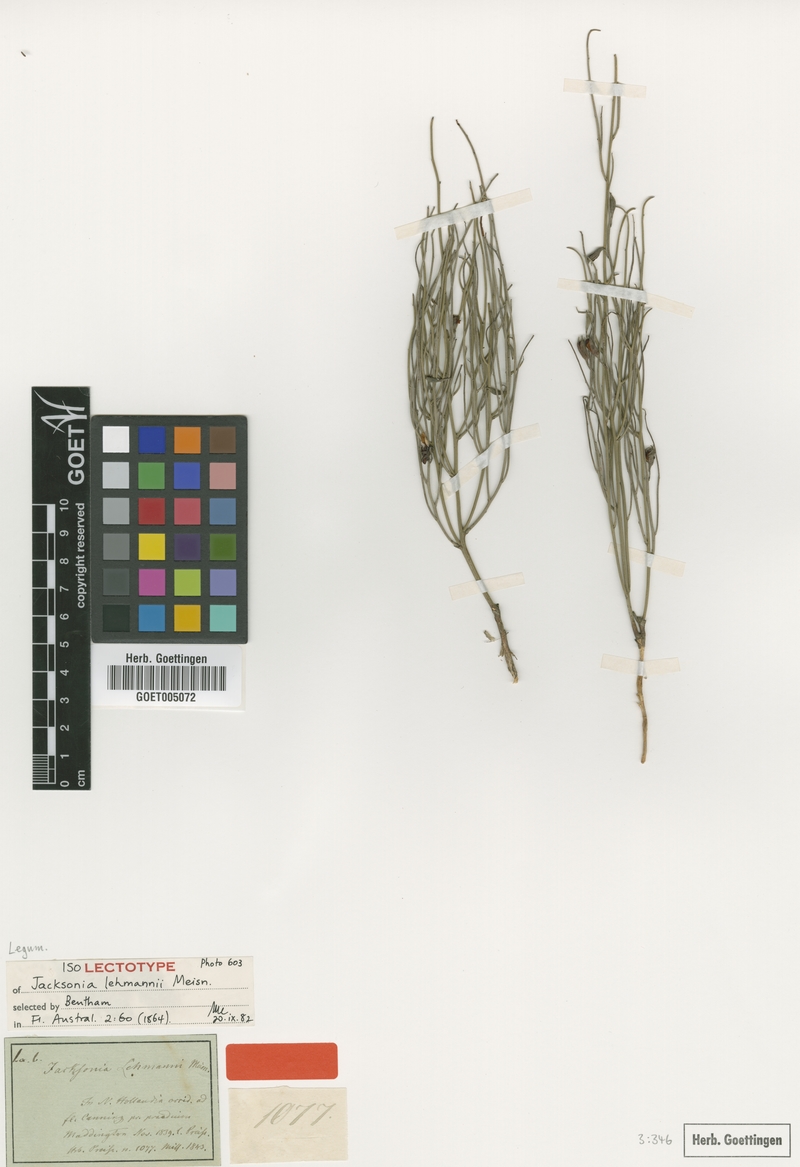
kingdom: Plantae
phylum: Tracheophyta
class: Magnoliopsida
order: Fabales
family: Fabaceae
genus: Jacksonia
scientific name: Jacksonia lehmannii
